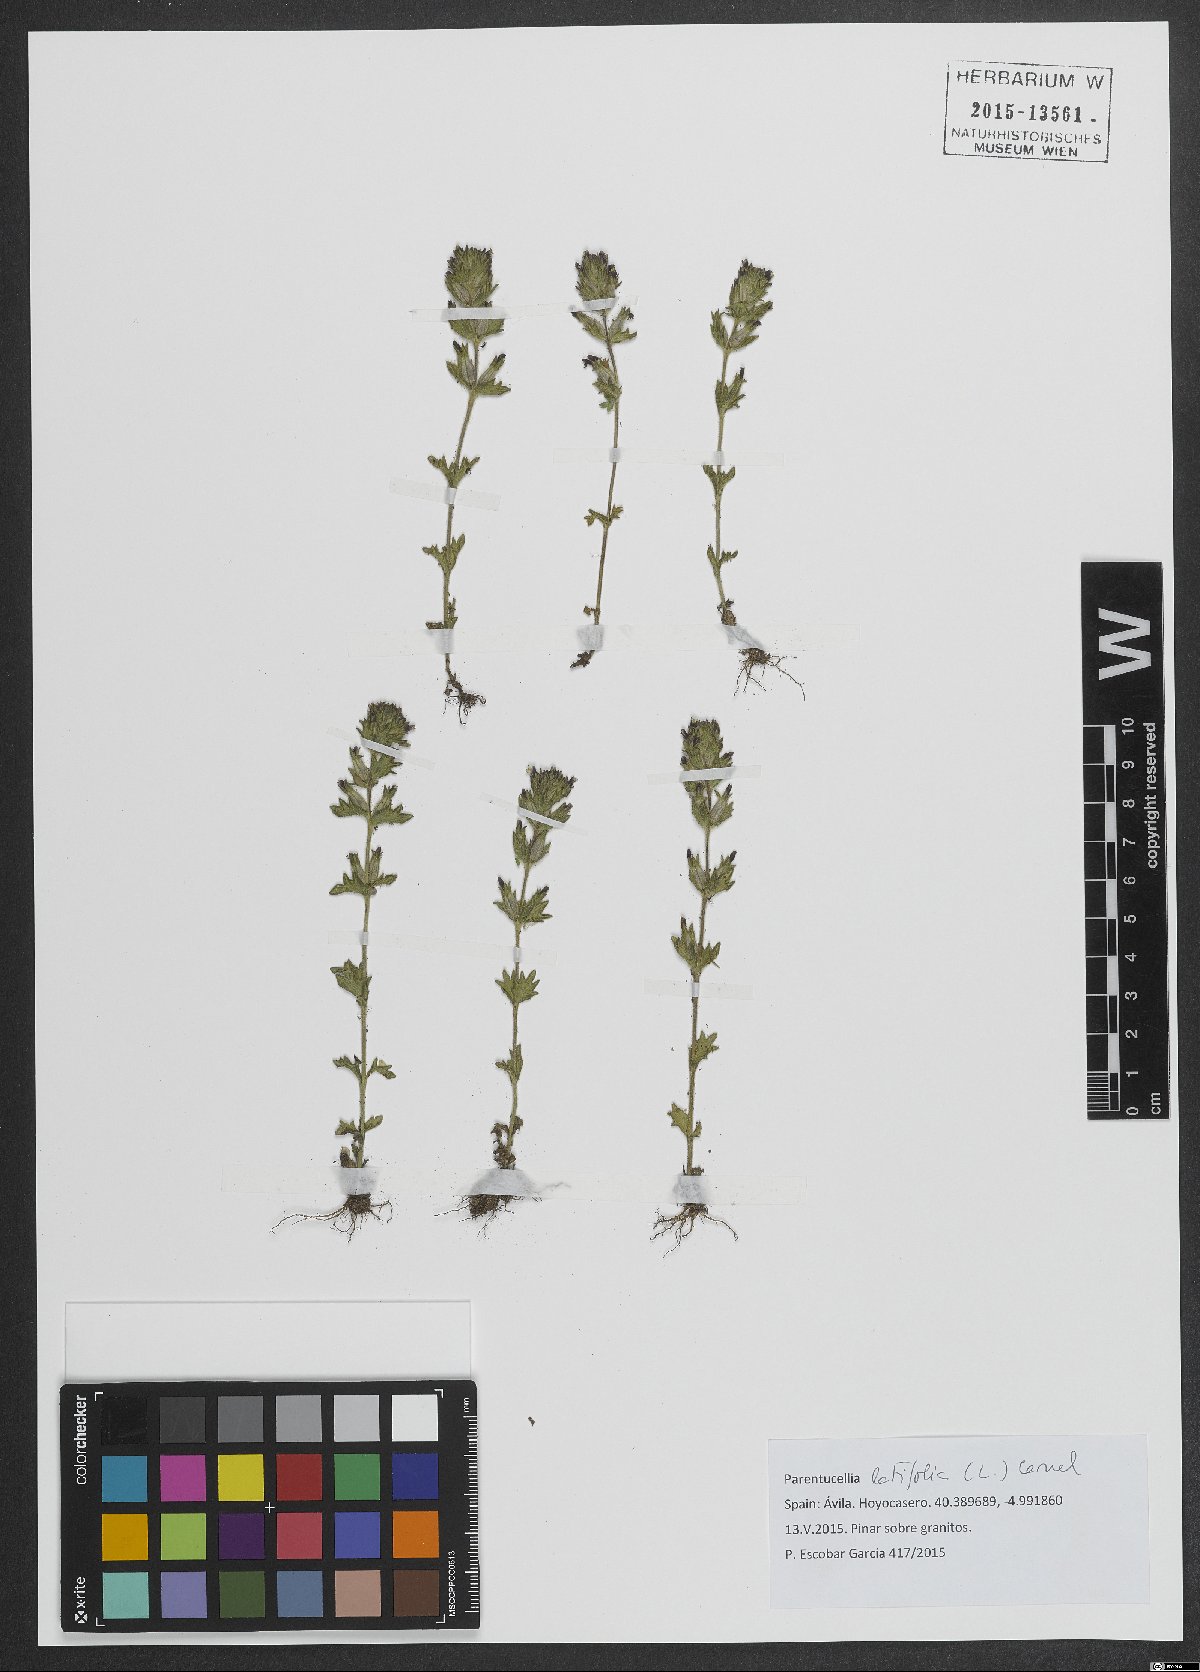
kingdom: Plantae
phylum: Tracheophyta
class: Magnoliopsida
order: Lamiales
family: Orobanchaceae
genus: Parentucellia
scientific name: Parentucellia latifolia
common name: Broadleaf glandweed
